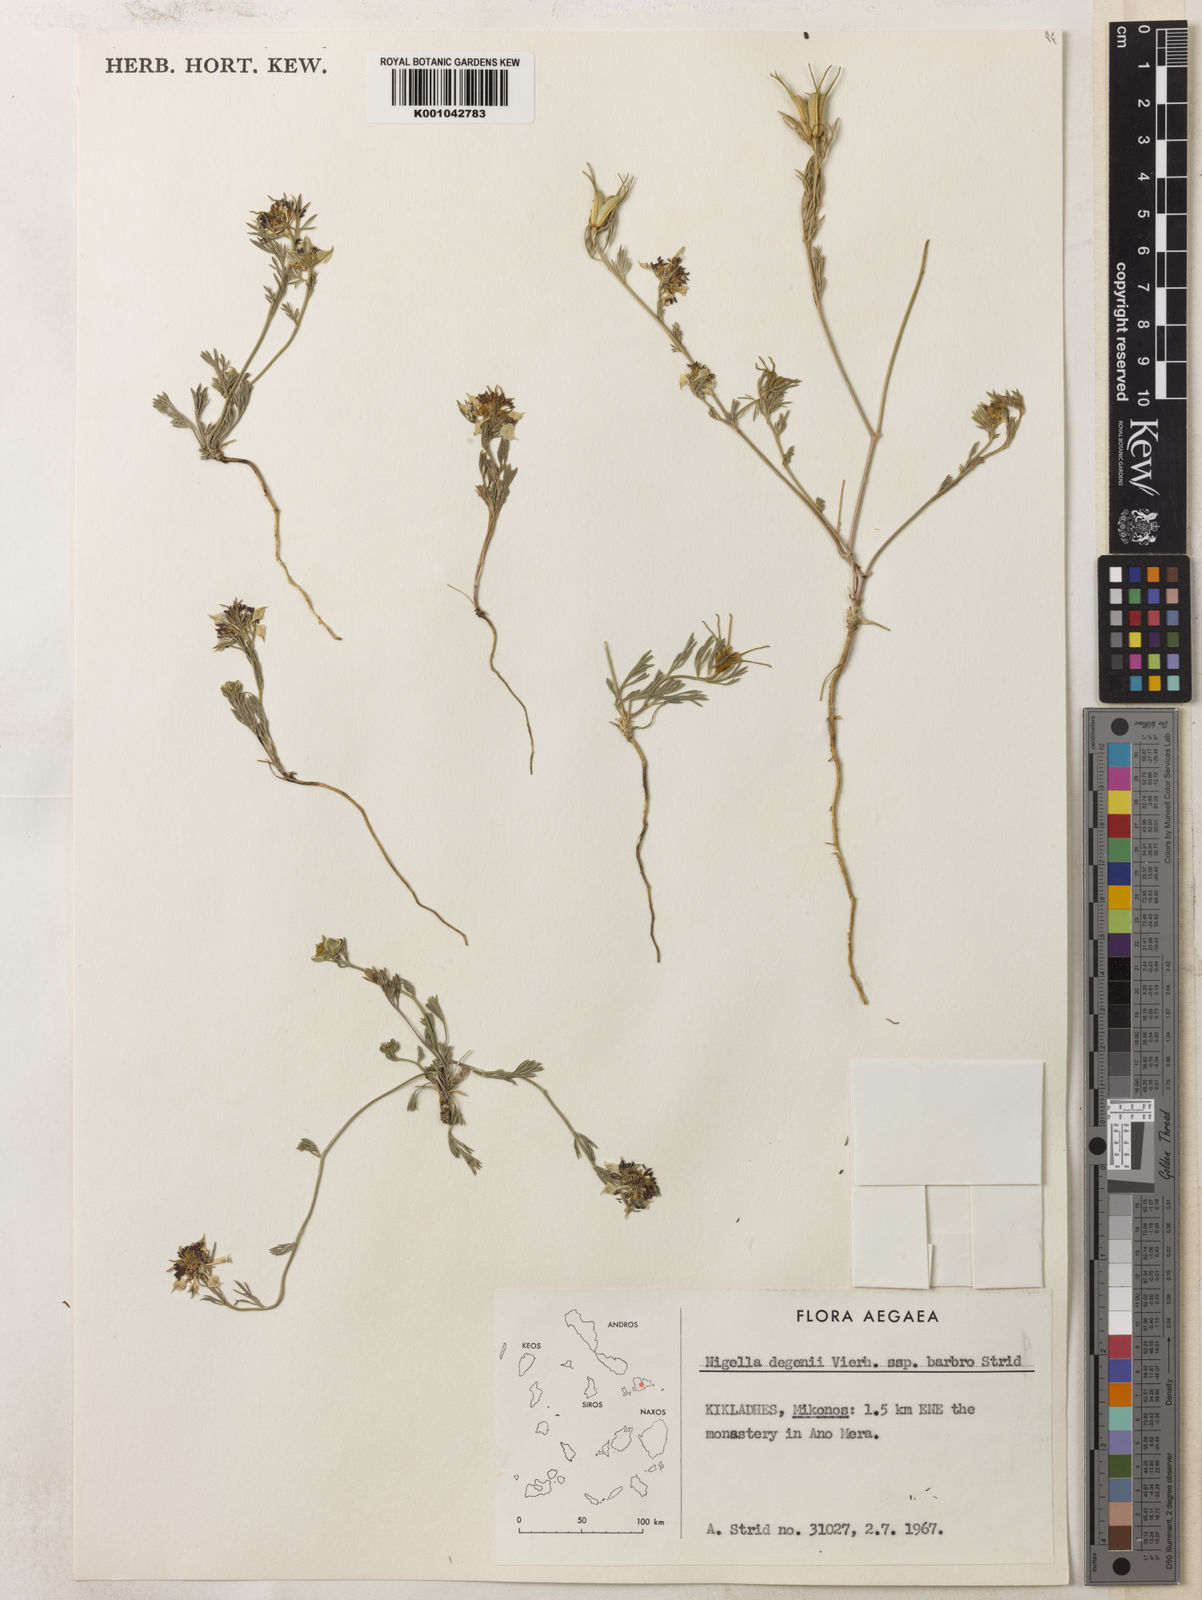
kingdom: Plantae
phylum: Tracheophyta
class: Magnoliopsida
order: Ranunculales
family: Ranunculaceae
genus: Nigella
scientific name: Nigella degenii
